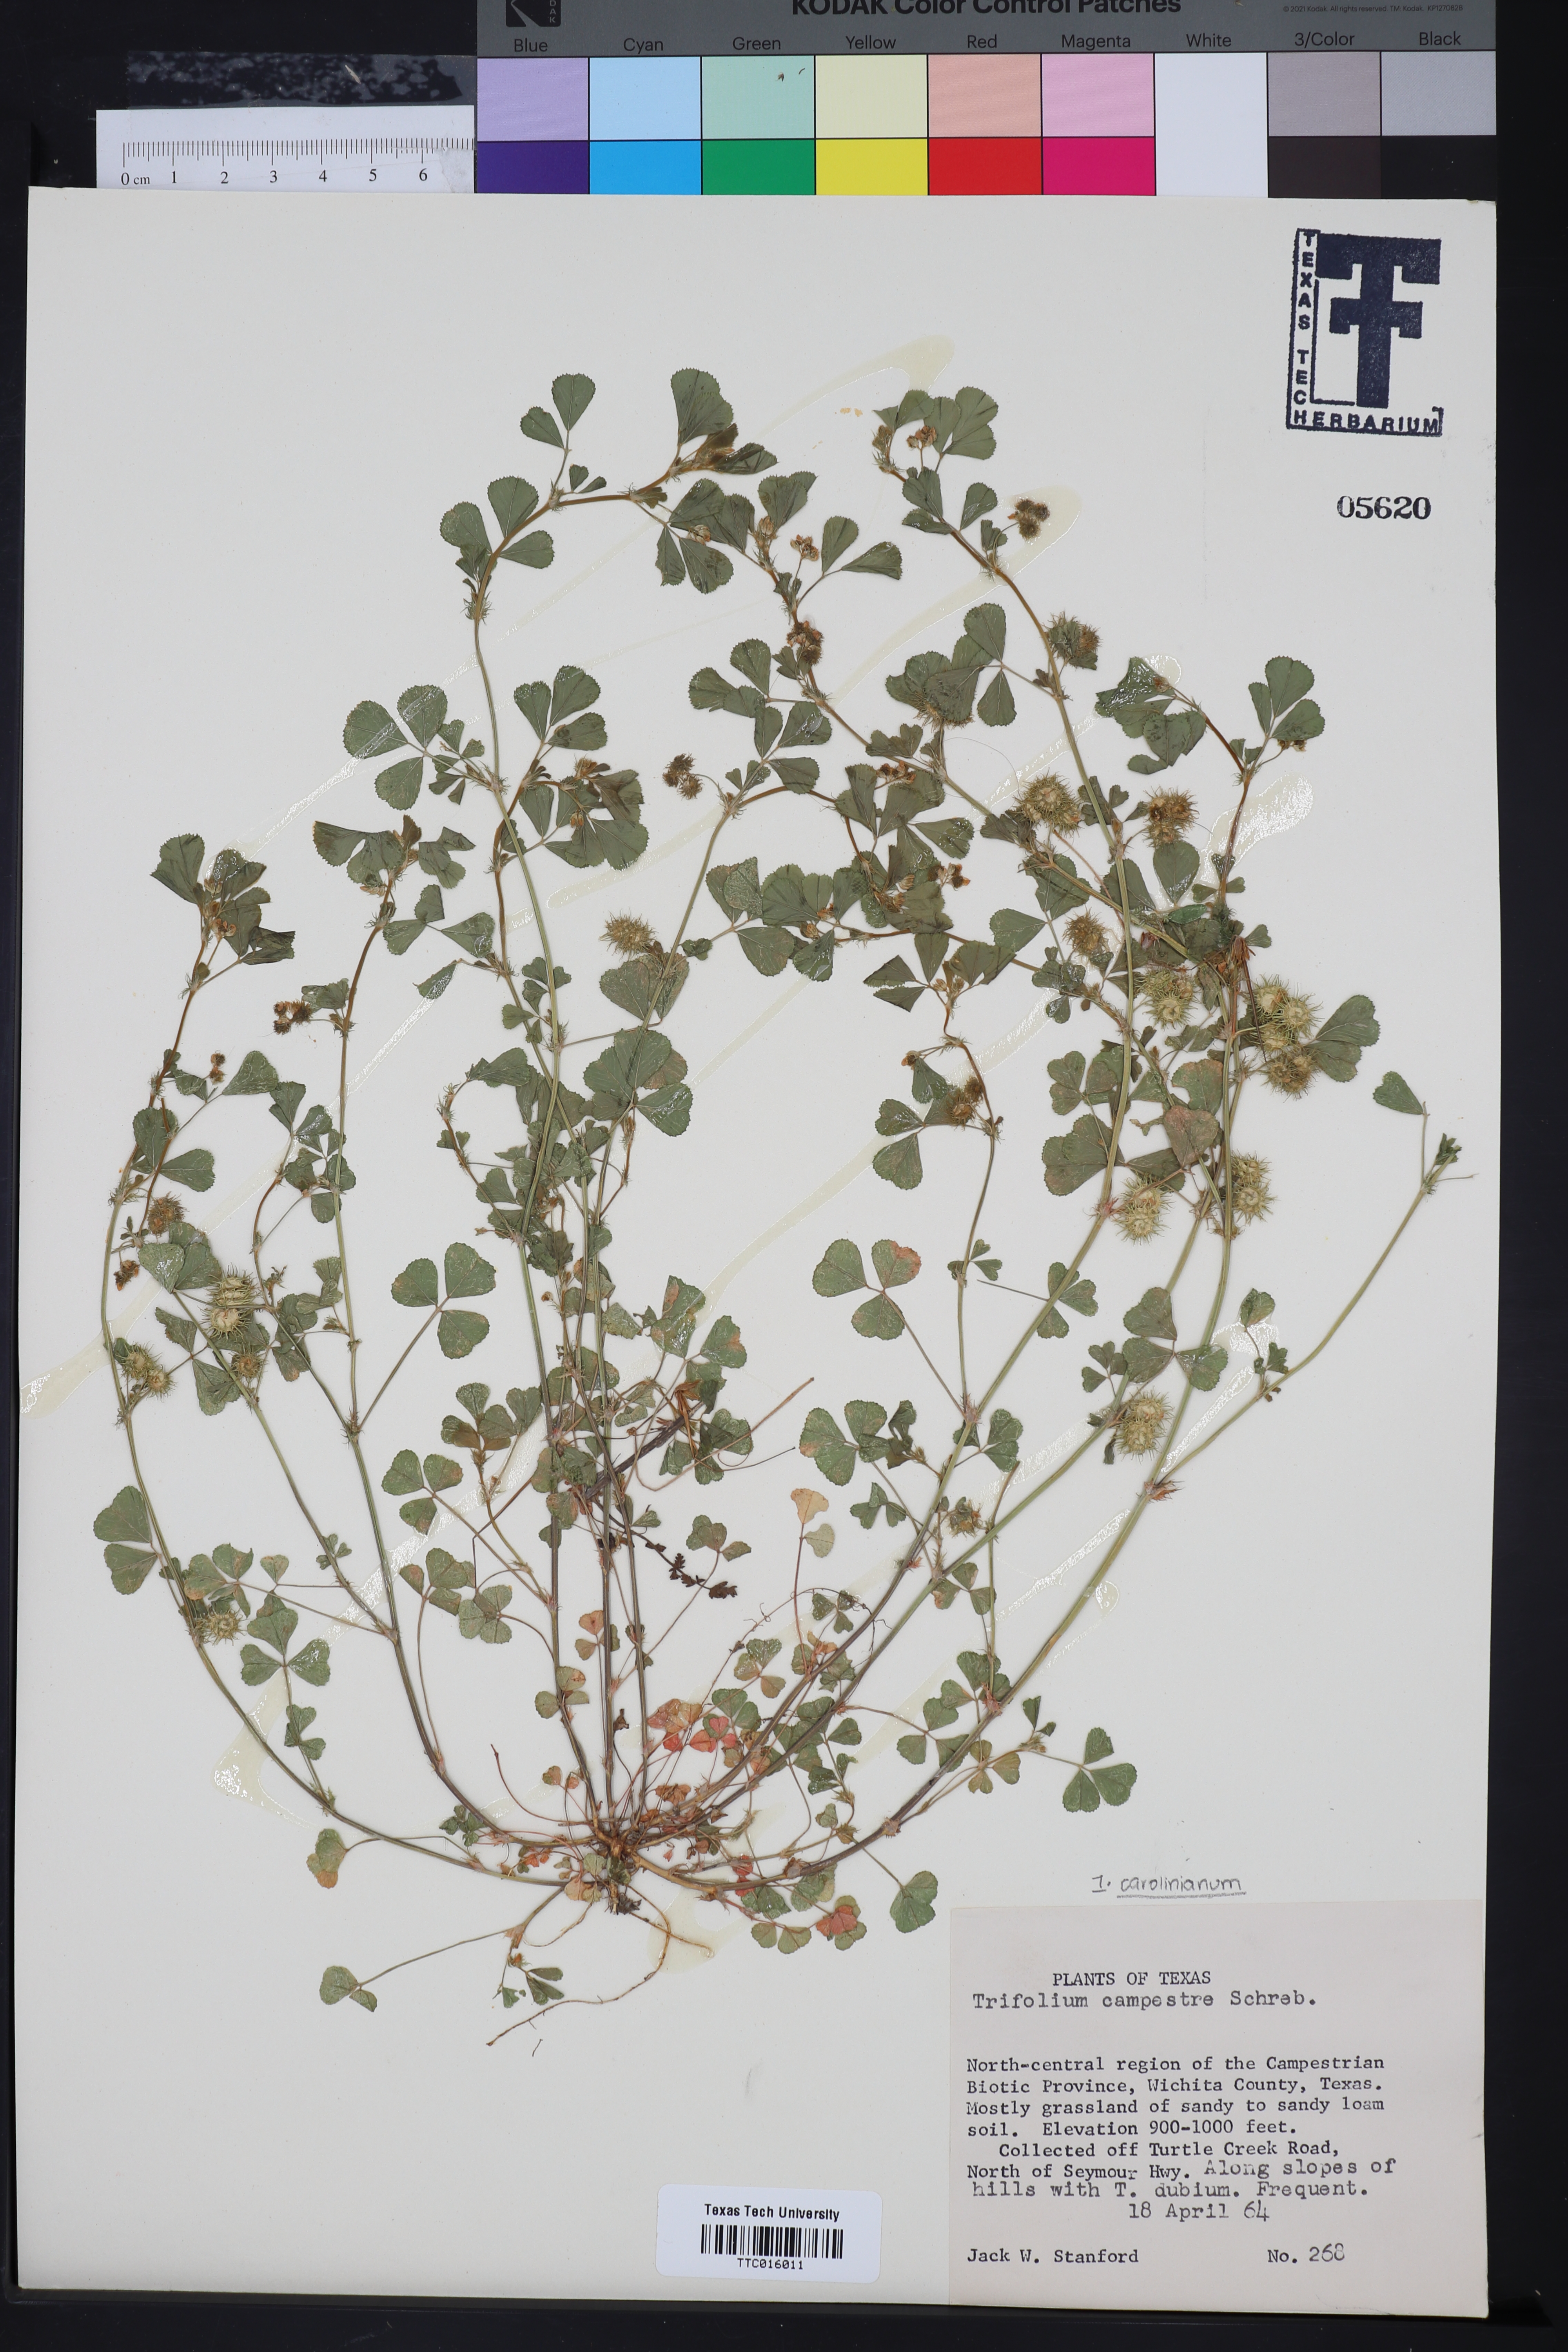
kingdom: Plantae
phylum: Tracheophyta
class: Magnoliopsida
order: Fabales
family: Fabaceae
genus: Trifolium
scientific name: Trifolium campestre
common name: Field clover
